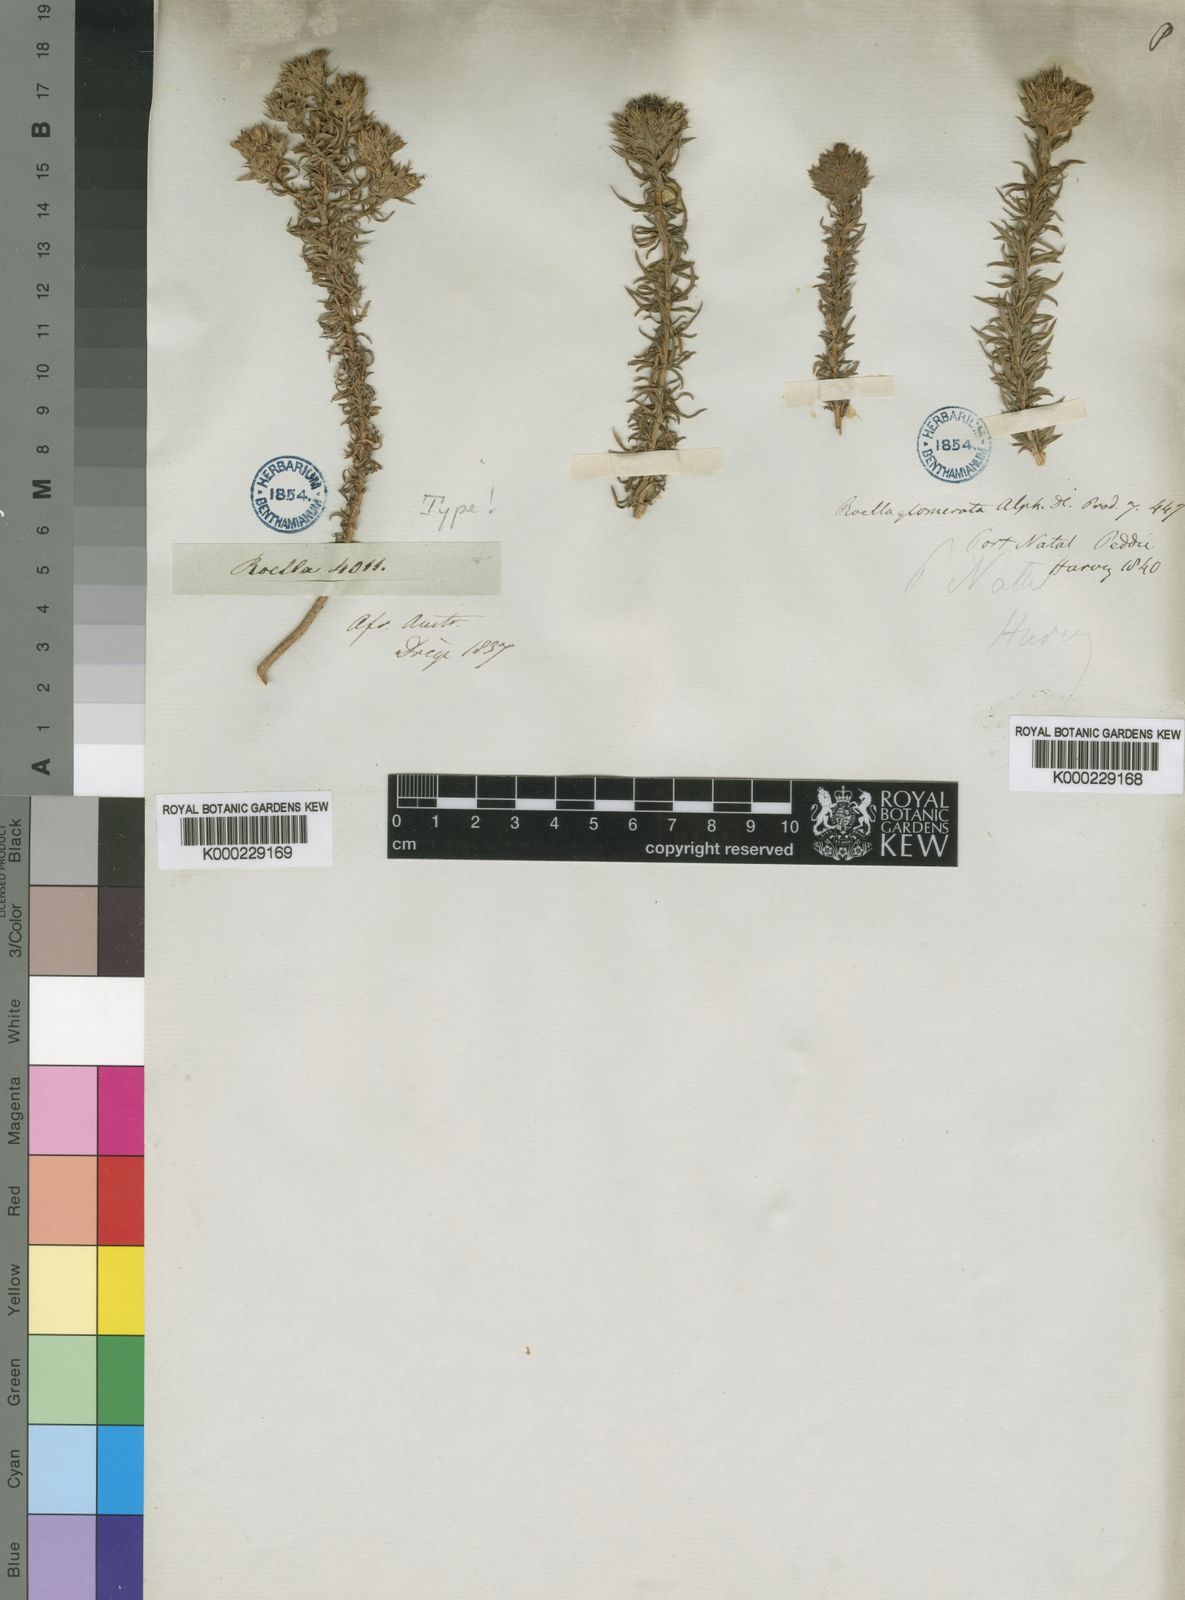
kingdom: Plantae
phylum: Tracheophyta
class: Magnoliopsida
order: Asterales
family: Campanulaceae
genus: Roella
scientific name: Roella glomerata
